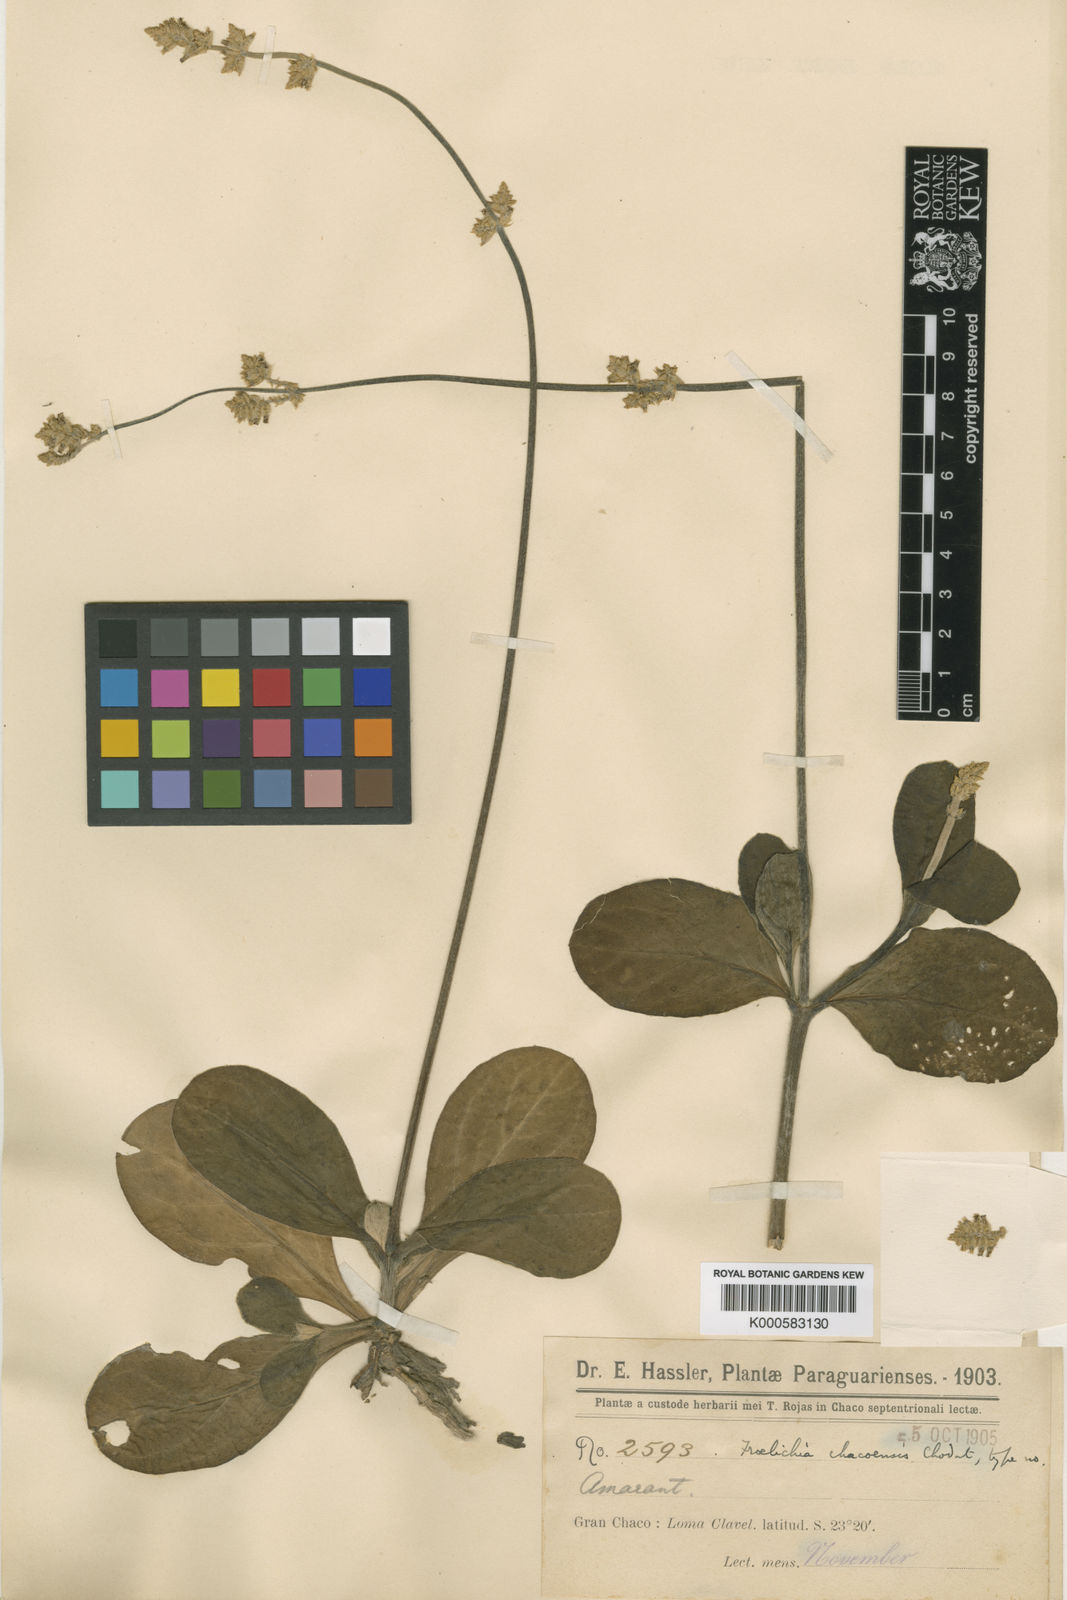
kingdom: Plantae
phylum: Tracheophyta
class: Magnoliopsida
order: Caryophyllales
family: Amaranthaceae
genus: Froelichia
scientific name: Froelichia chacoensis
